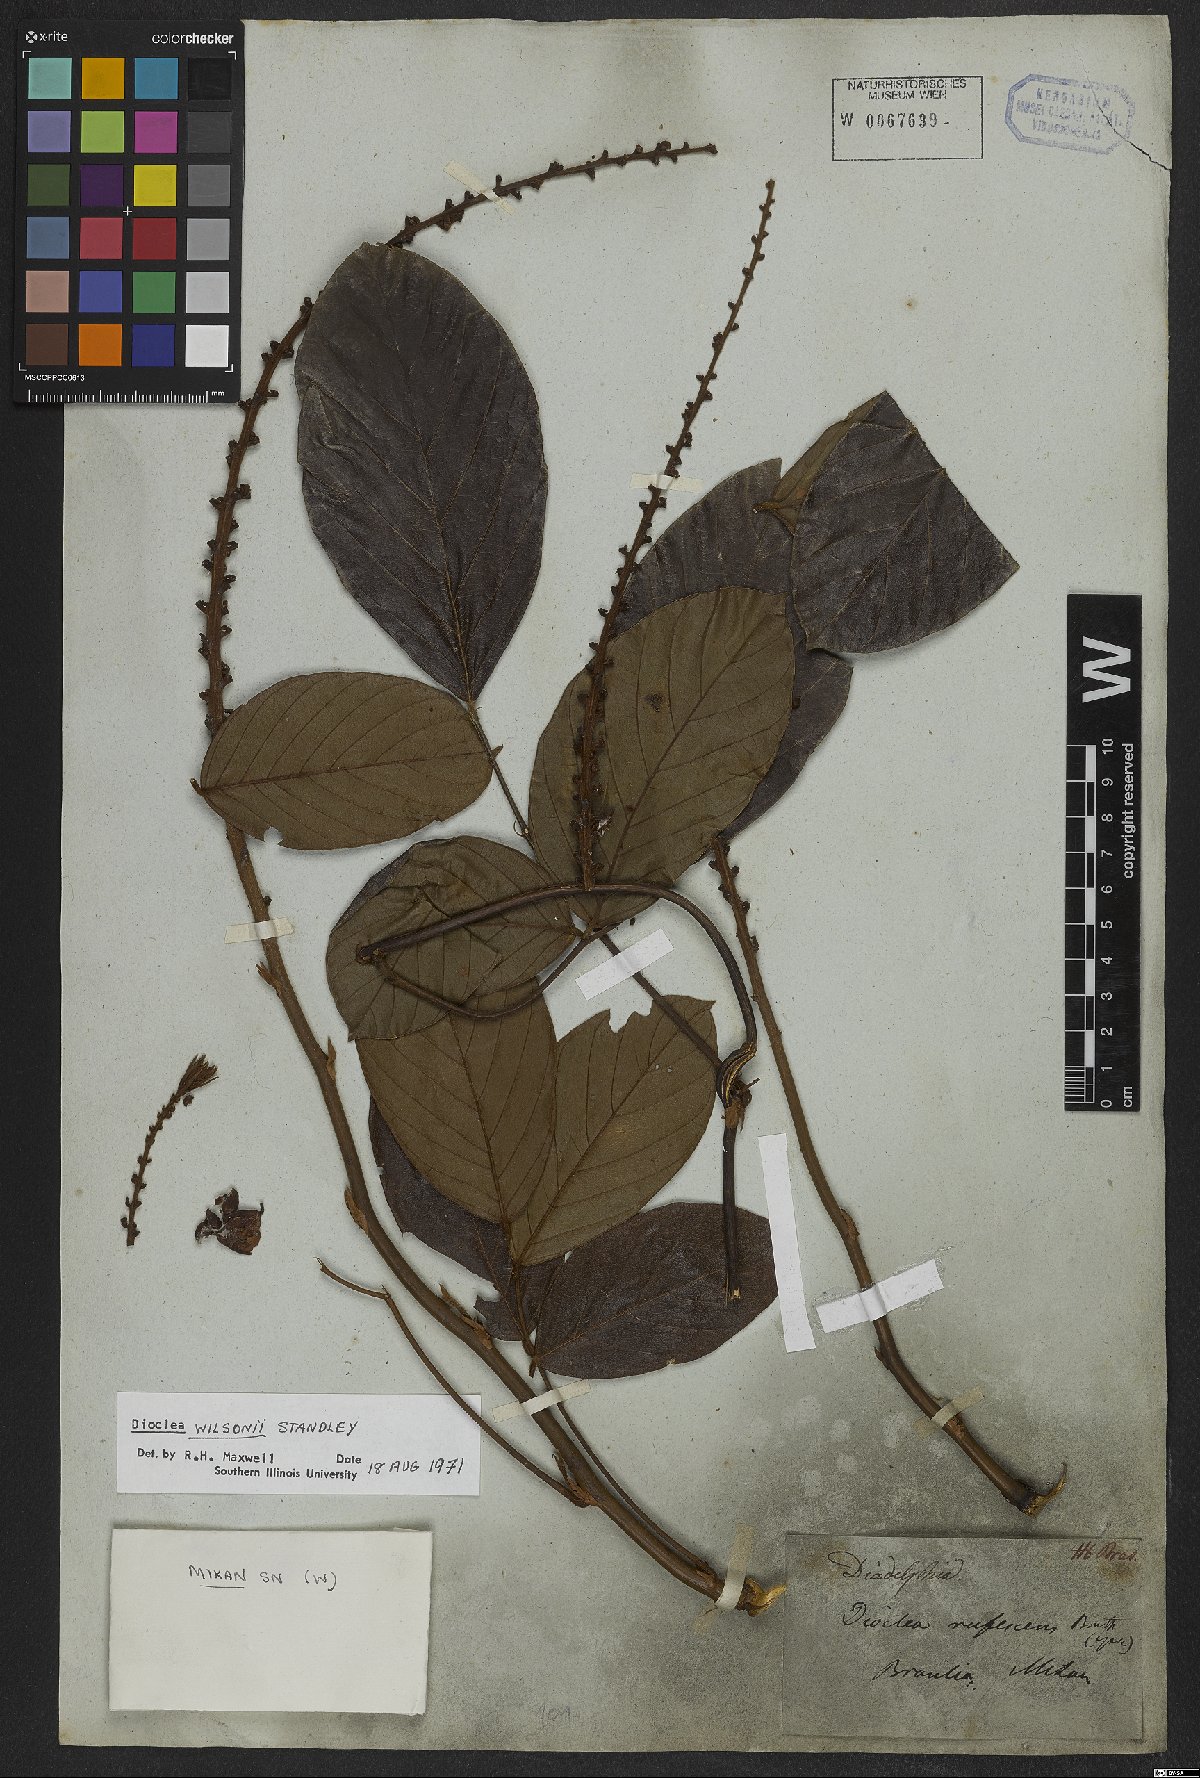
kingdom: Plantae
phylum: Tracheophyta
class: Magnoliopsida
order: Fabales
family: Fabaceae
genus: Macropsychanthus
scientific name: Macropsychanthus wilsonii
